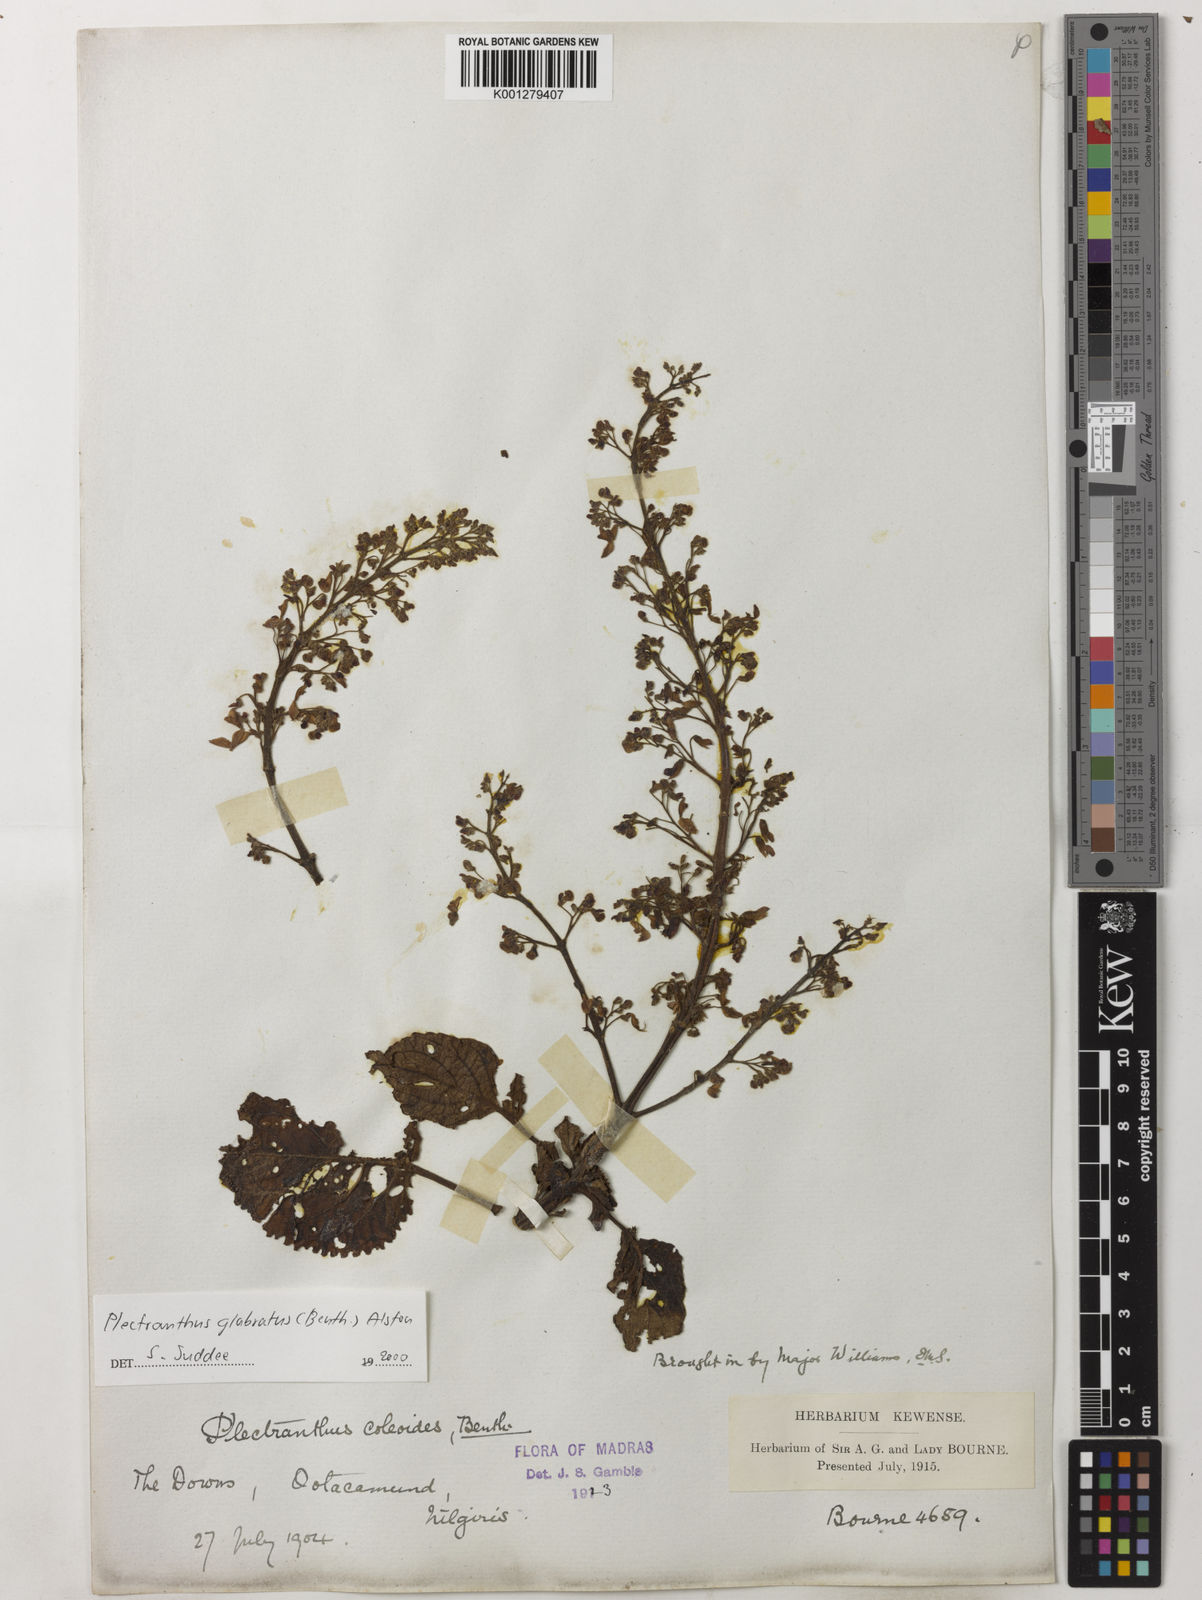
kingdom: Plantae
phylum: Tracheophyta
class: Magnoliopsida
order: Lamiales
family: Lamiaceae
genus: Coleus
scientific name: Coleus paniculatus
